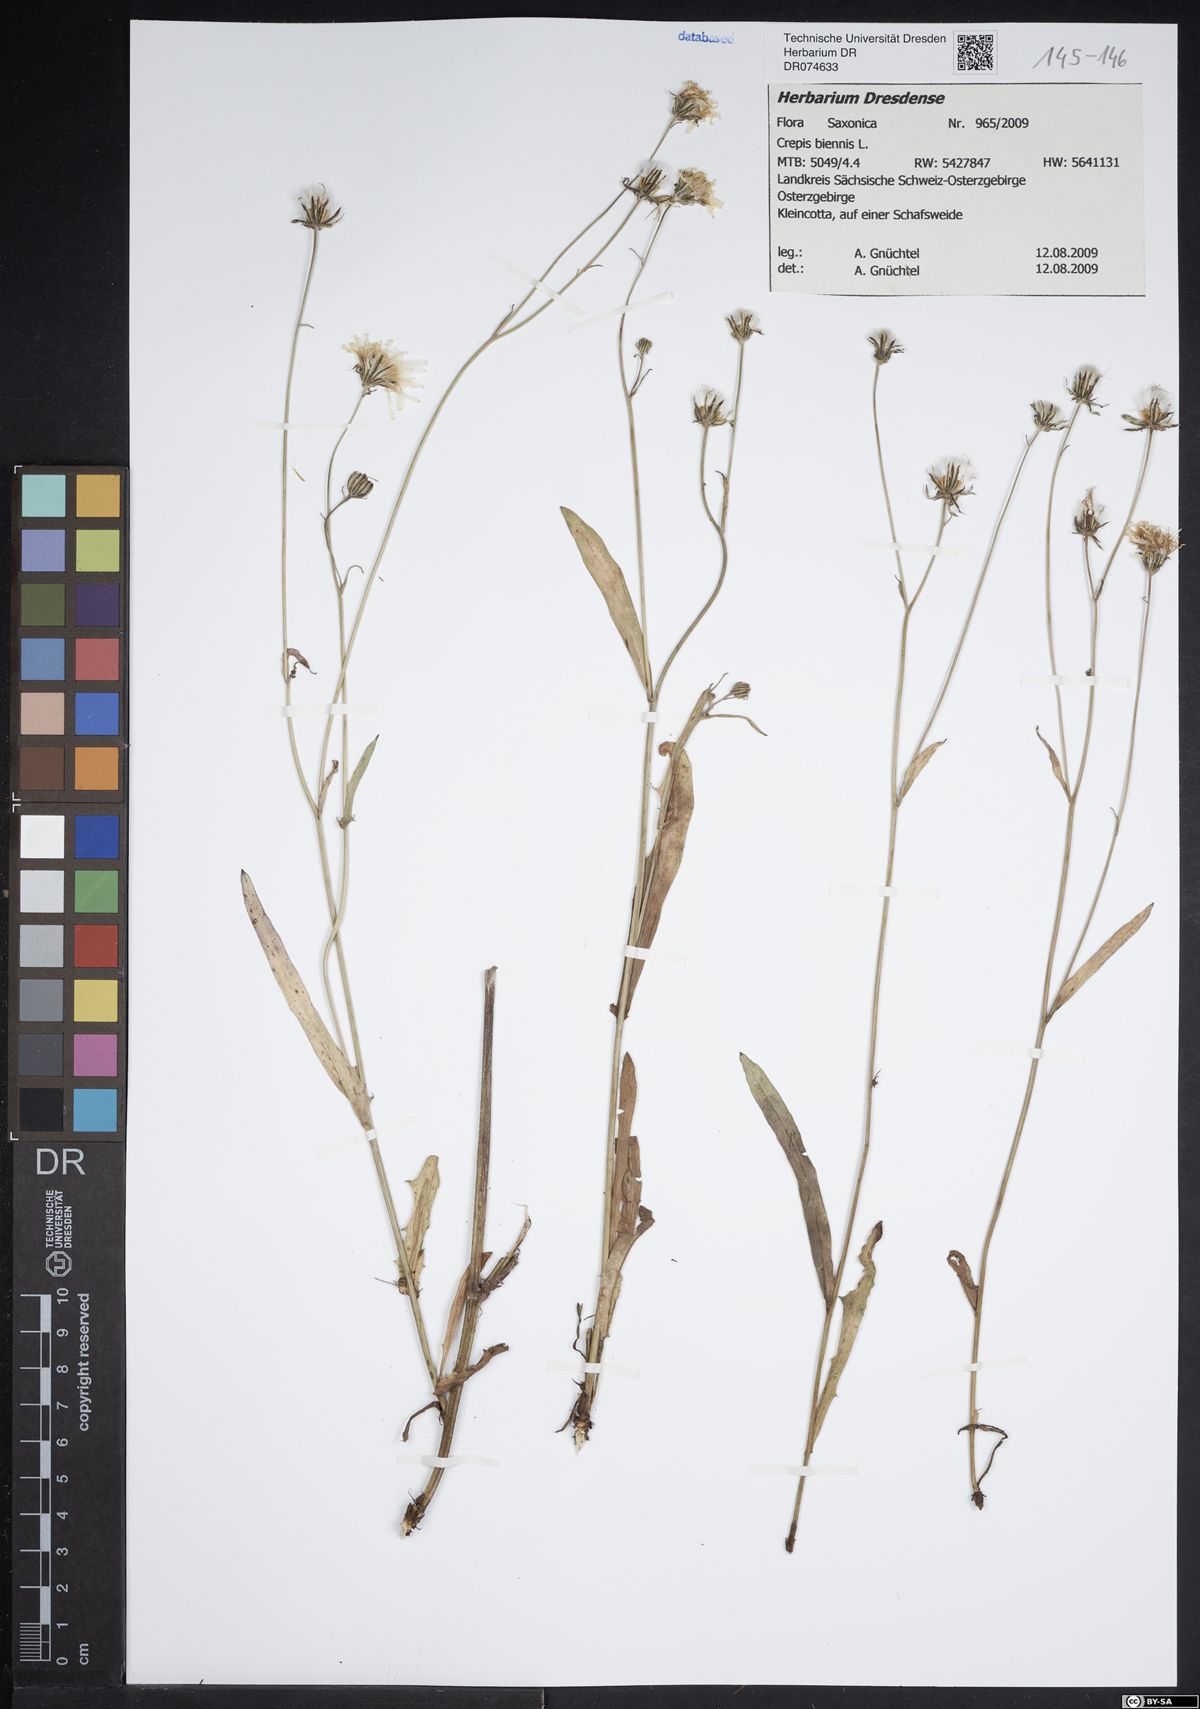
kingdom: Plantae
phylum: Tracheophyta
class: Magnoliopsida
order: Asterales
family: Asteraceae
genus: Crepis
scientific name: Crepis biennis
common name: Rough hawk's-beard
